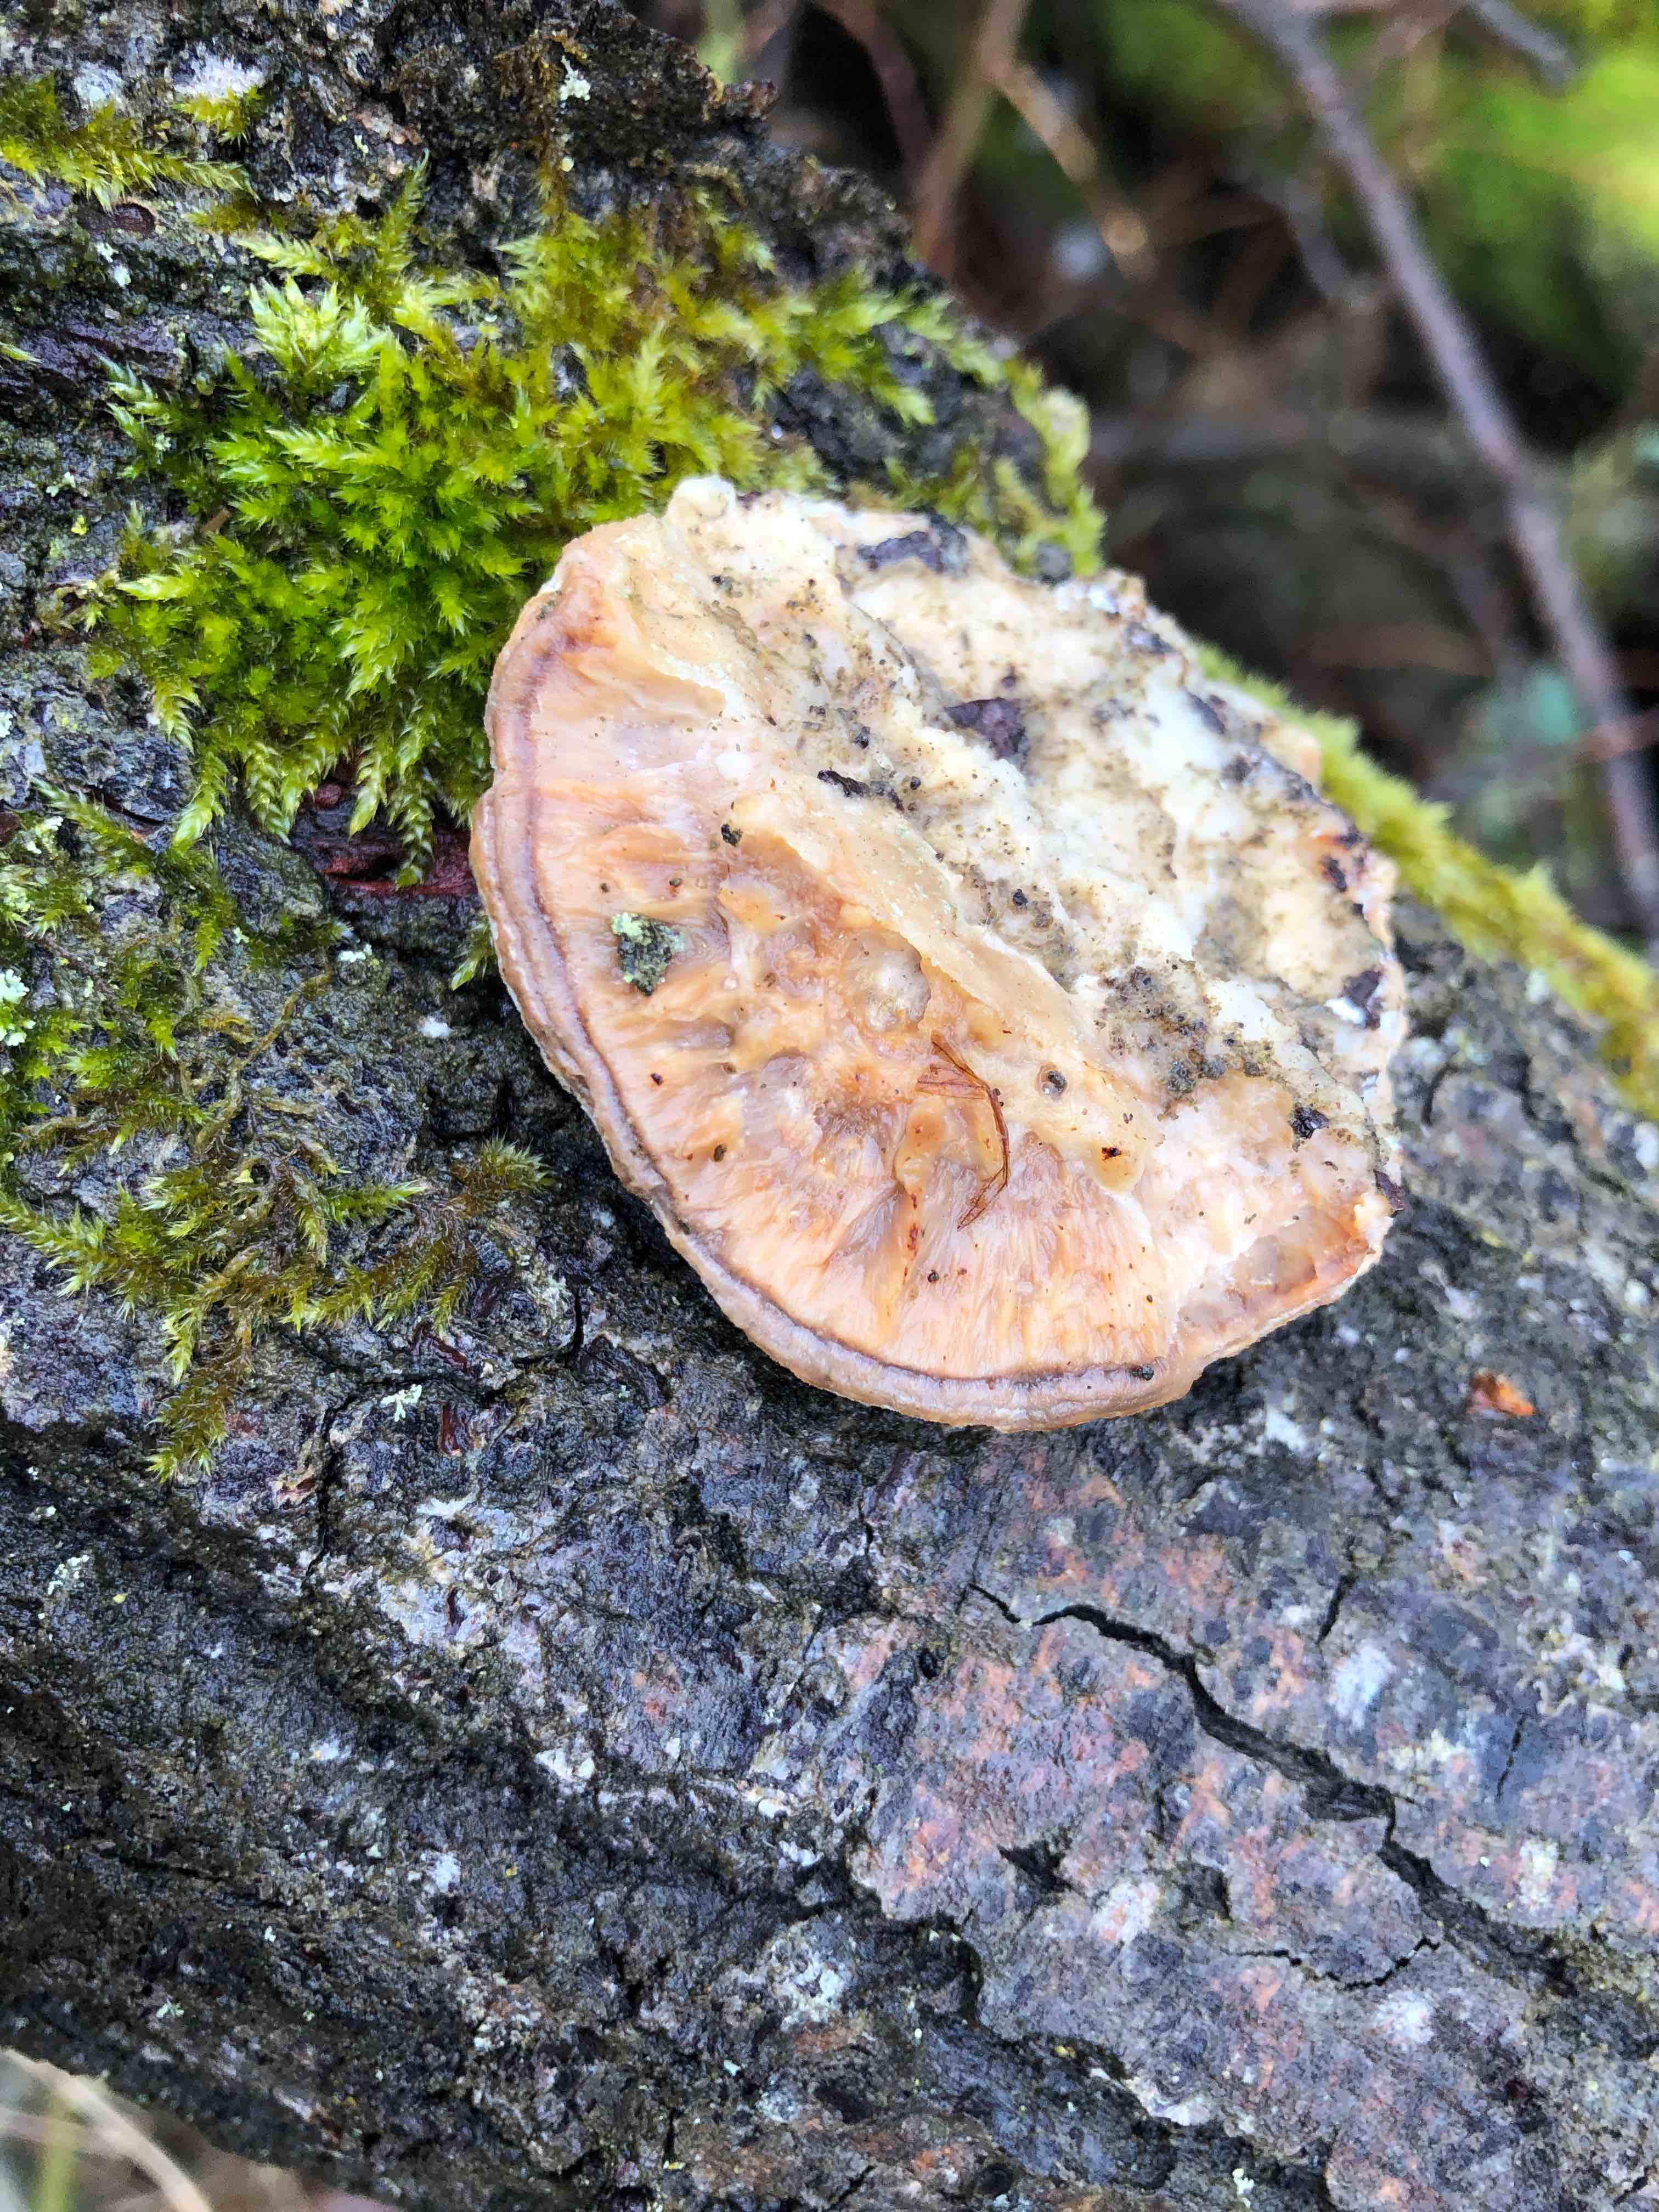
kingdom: Fungi
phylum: Basidiomycota
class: Agaricomycetes
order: Polyporales
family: Polyporaceae
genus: Lenzites
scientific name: Lenzites betulinus
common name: birke-læderporesvamp
